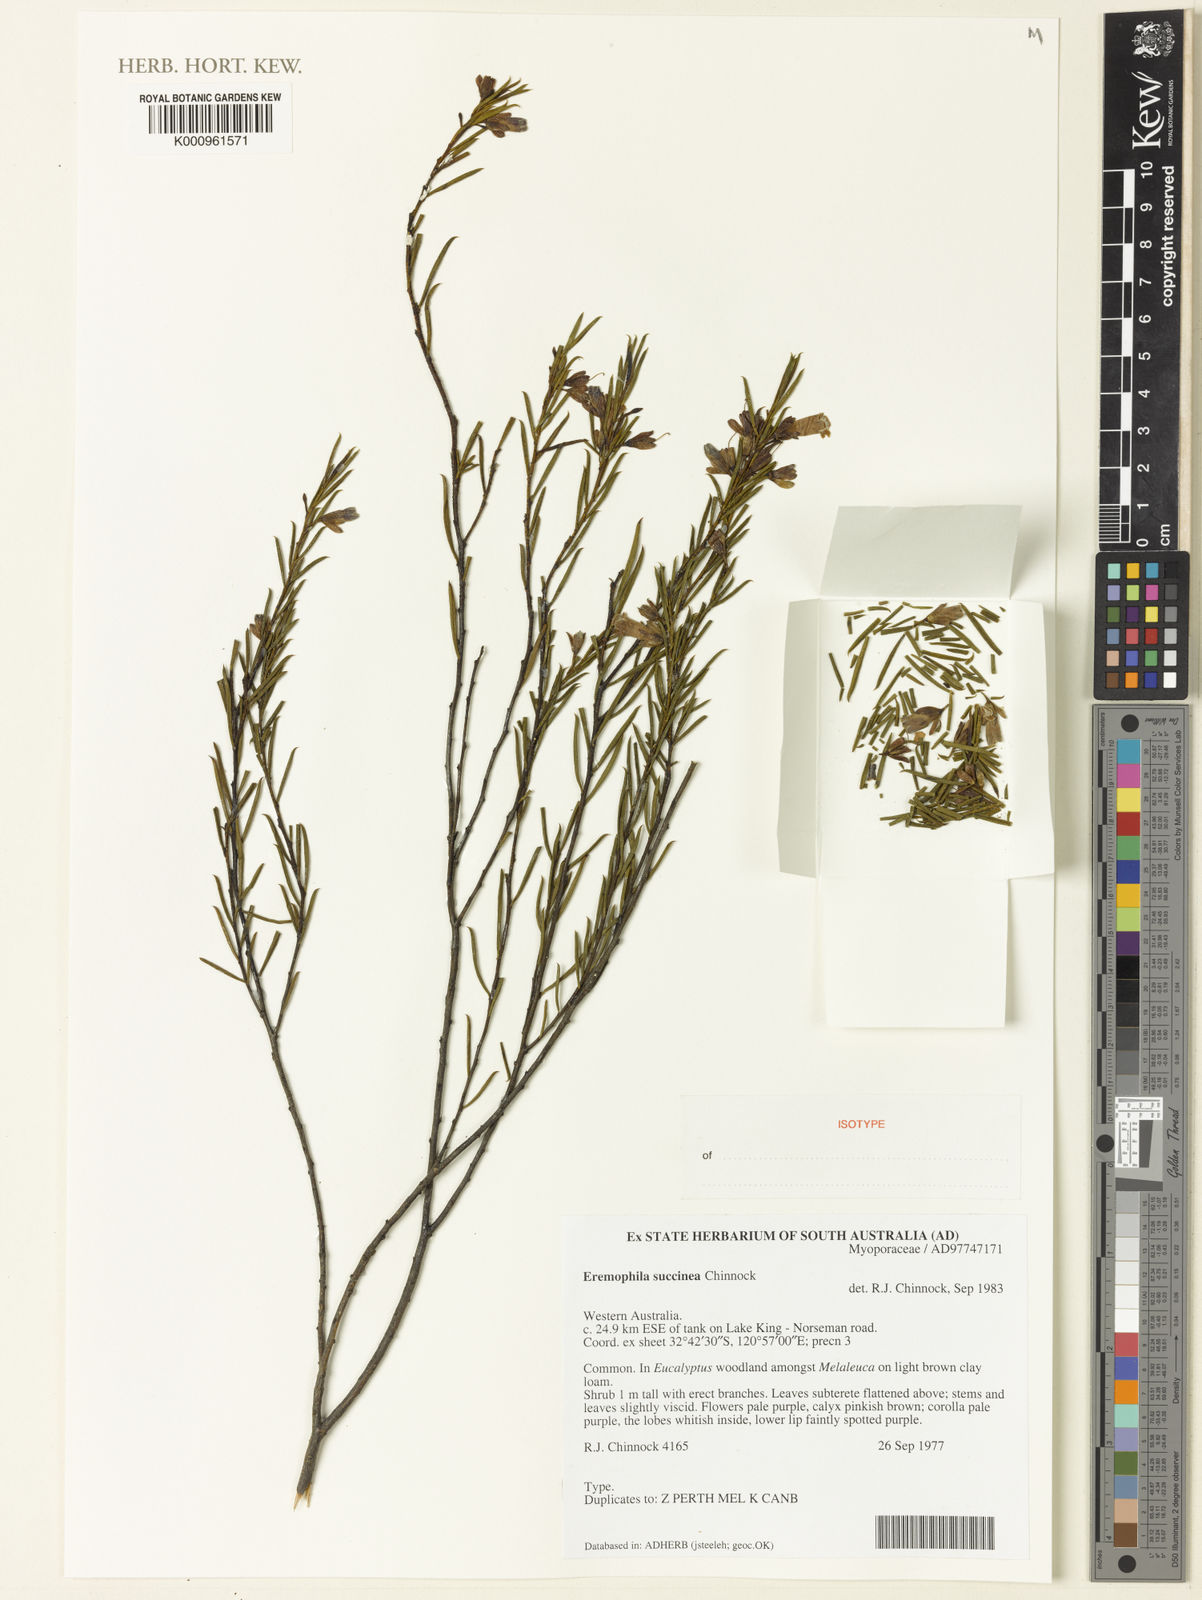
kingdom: Plantae
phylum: Tracheophyta
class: Magnoliopsida
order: Lamiales
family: Scrophulariaceae
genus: Eremophila
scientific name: Eremophila succinea
